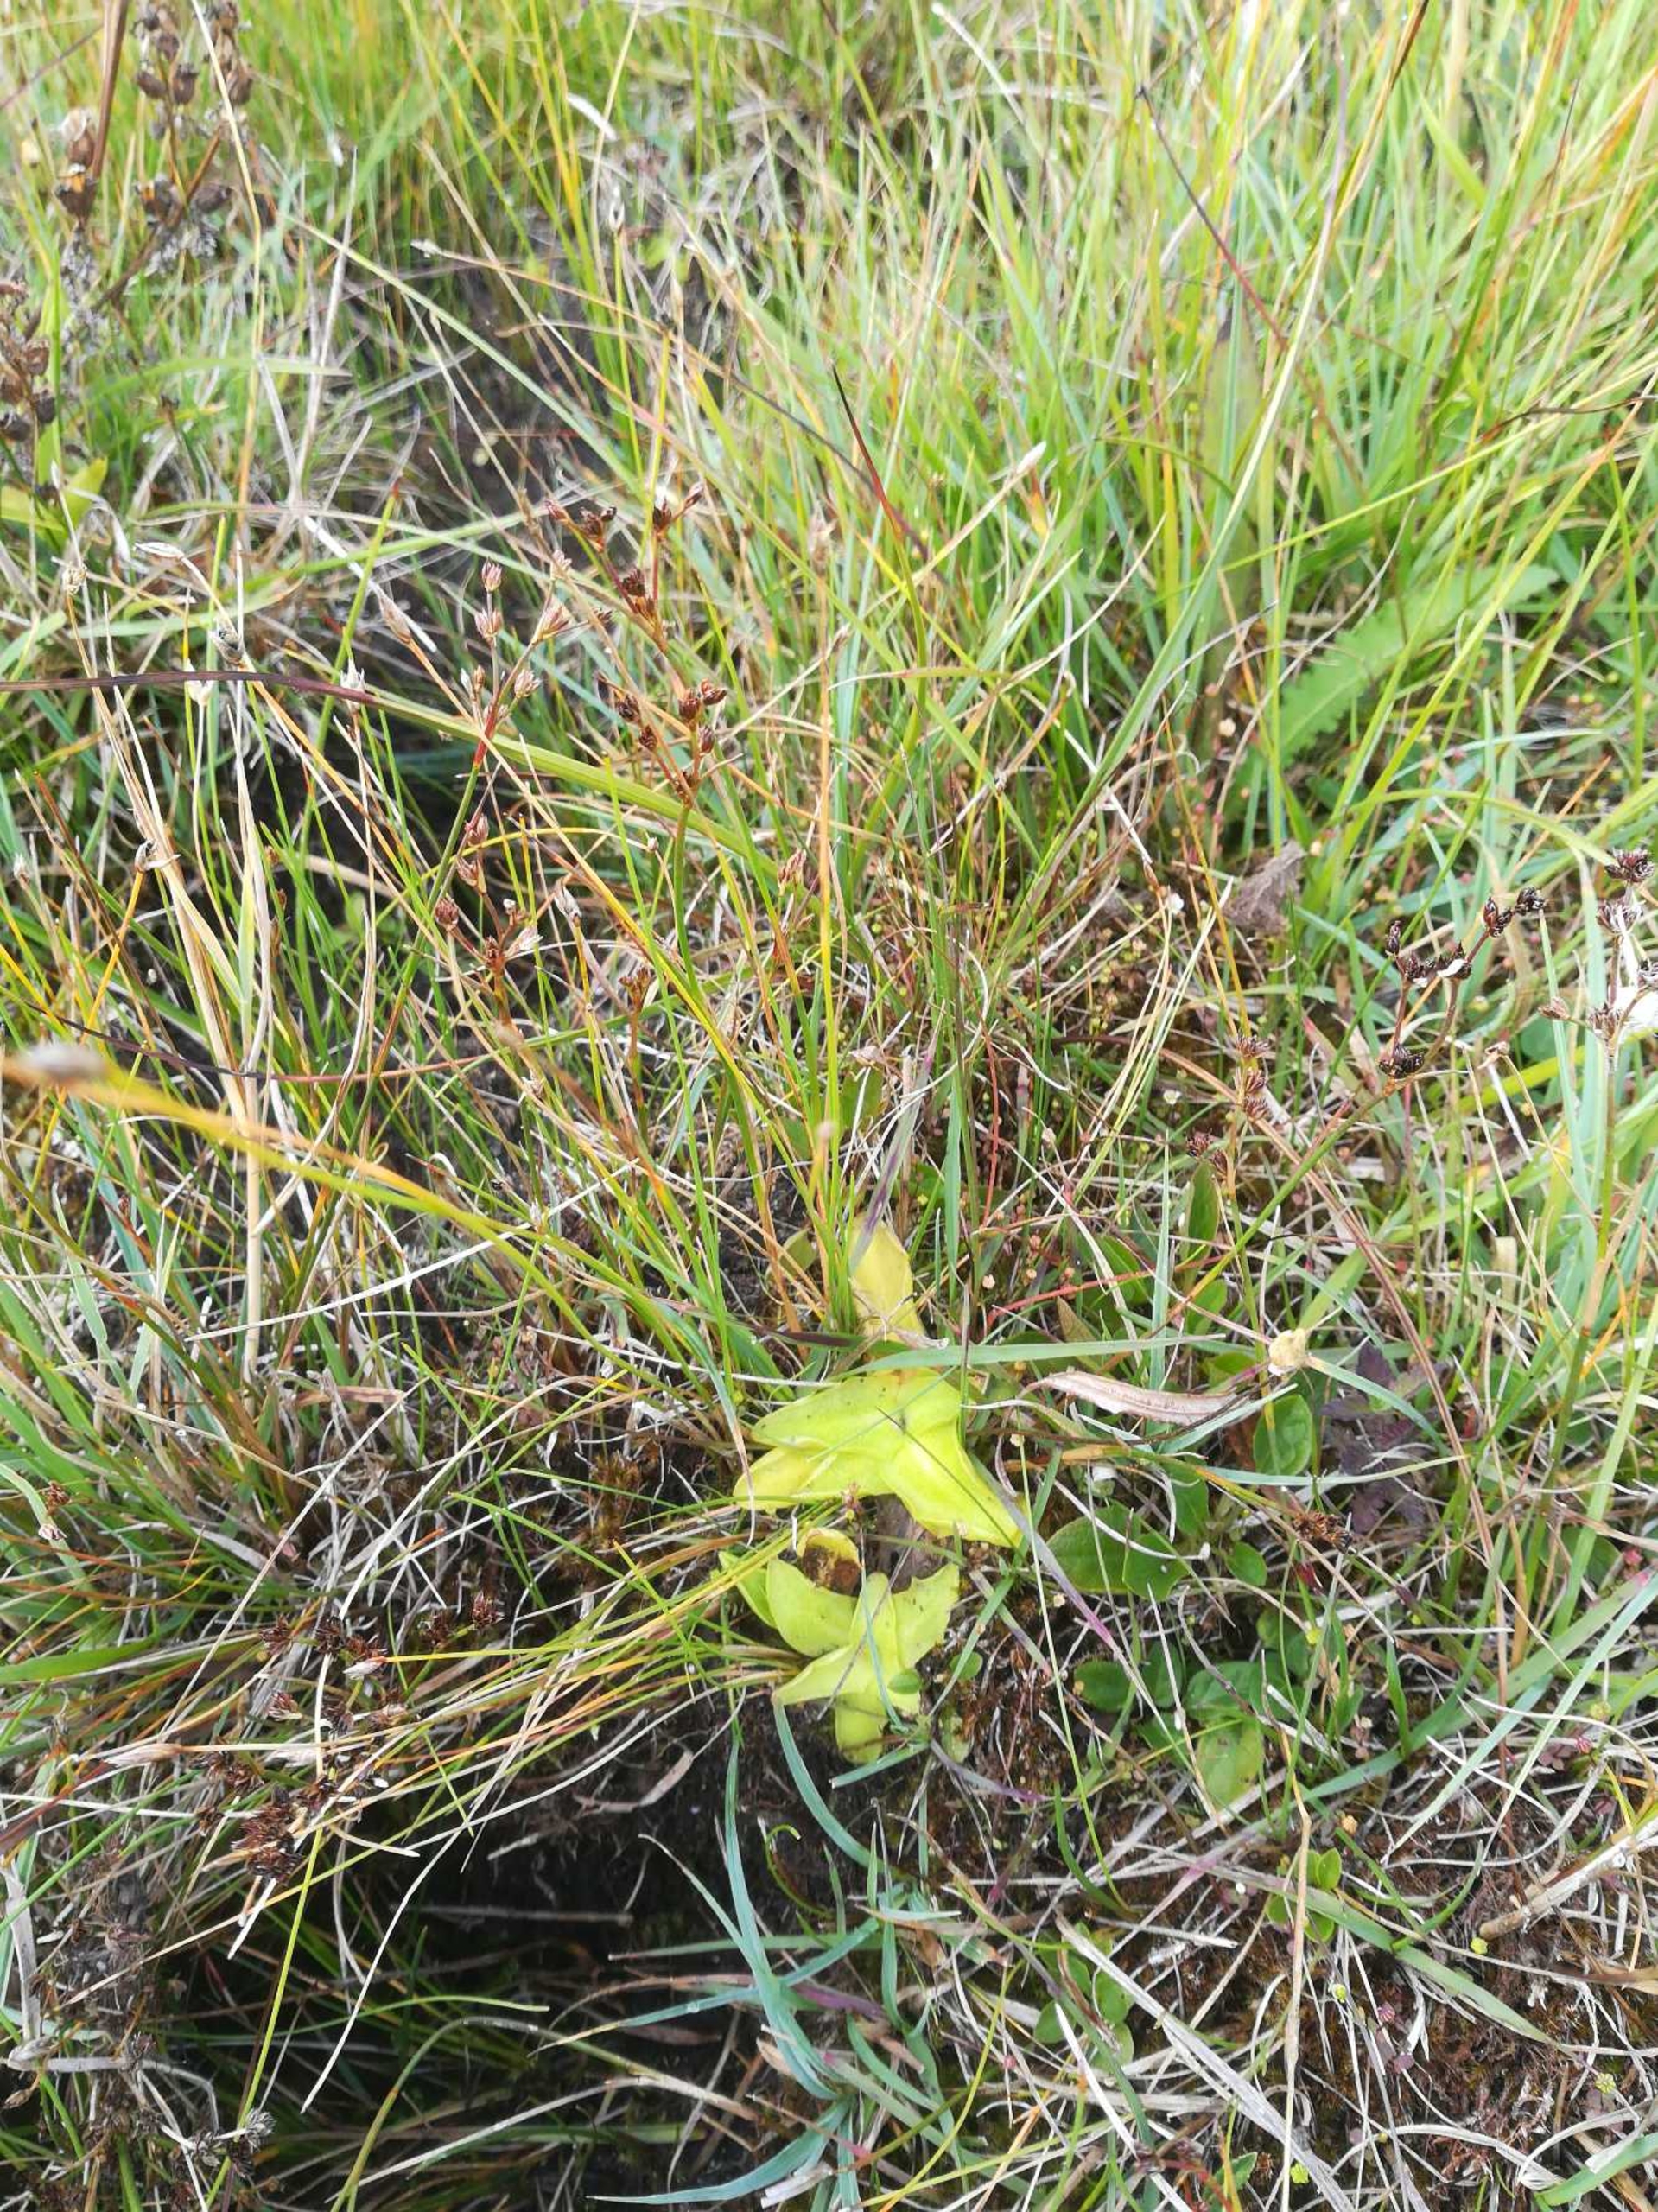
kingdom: Plantae
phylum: Tracheophyta
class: Magnoliopsida
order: Lamiales
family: Lentibulariaceae
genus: Pinguicula
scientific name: Pinguicula vulgaris
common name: Vibefedt
